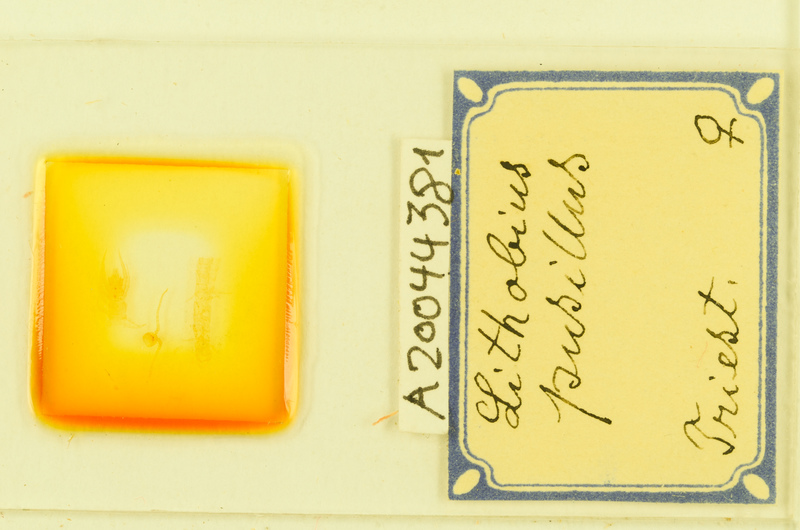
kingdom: Animalia
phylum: Arthropoda
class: Chilopoda
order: Lithobiomorpha
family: Lithobiidae
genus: Lithobius
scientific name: Lithobius
